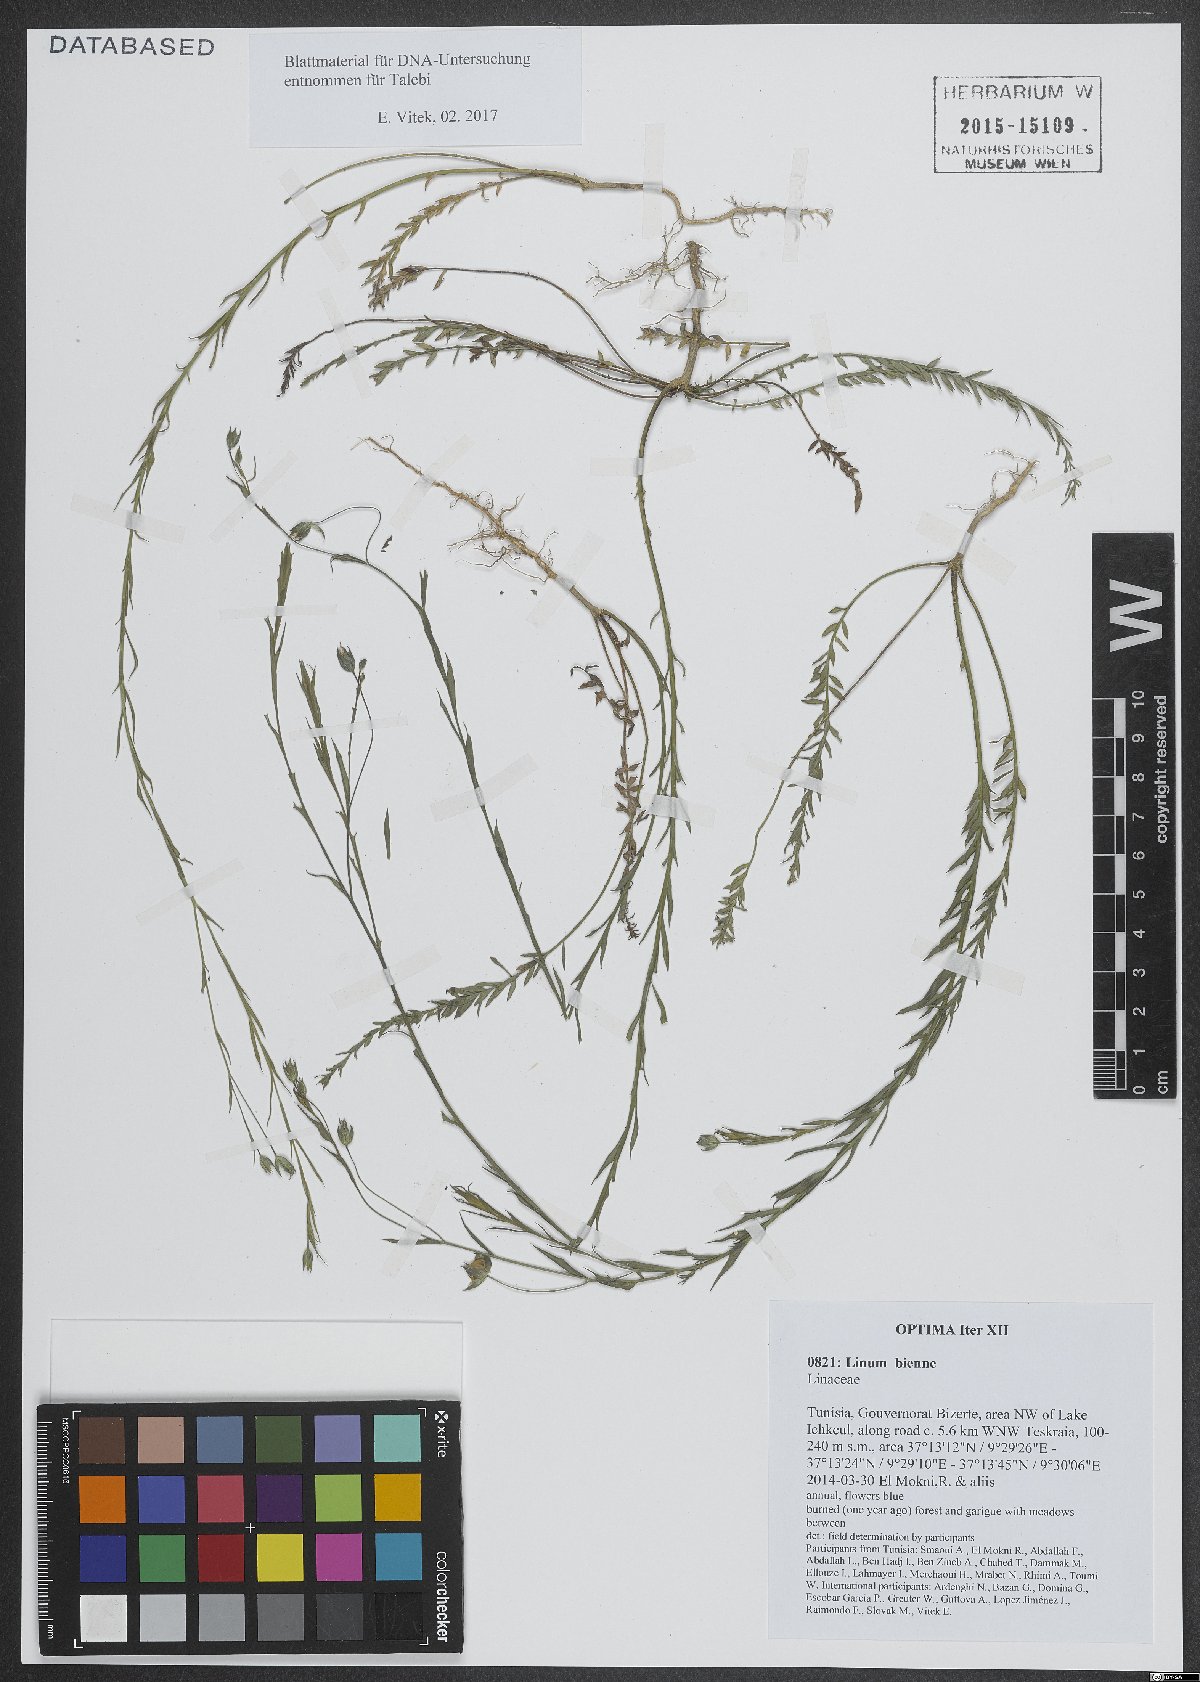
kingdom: Plantae
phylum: Tracheophyta
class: Magnoliopsida
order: Malpighiales
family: Linaceae
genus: Linum
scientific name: Linum bienne
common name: Pale flax
